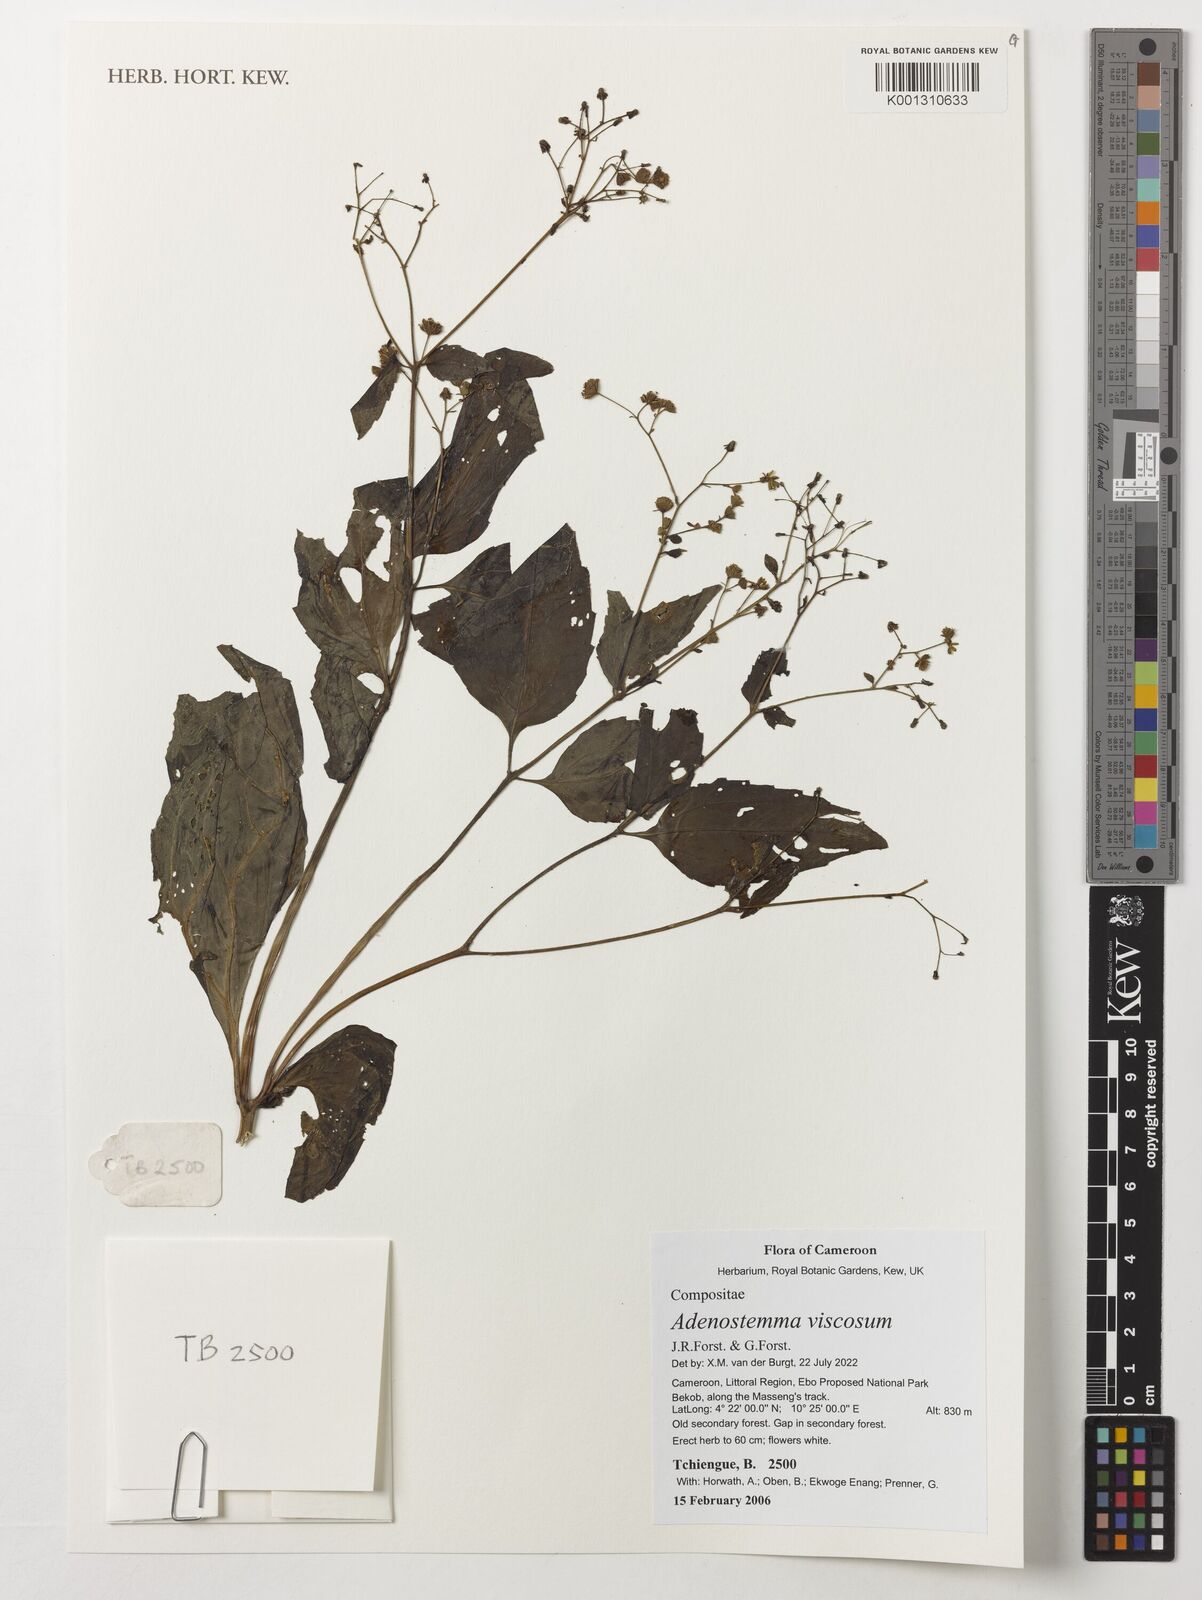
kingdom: Plantae
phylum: Tracheophyta
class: Magnoliopsida
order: Asterales
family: Asteraceae
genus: Adenostemma
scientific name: Adenostemma viscosum
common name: Dungweed
